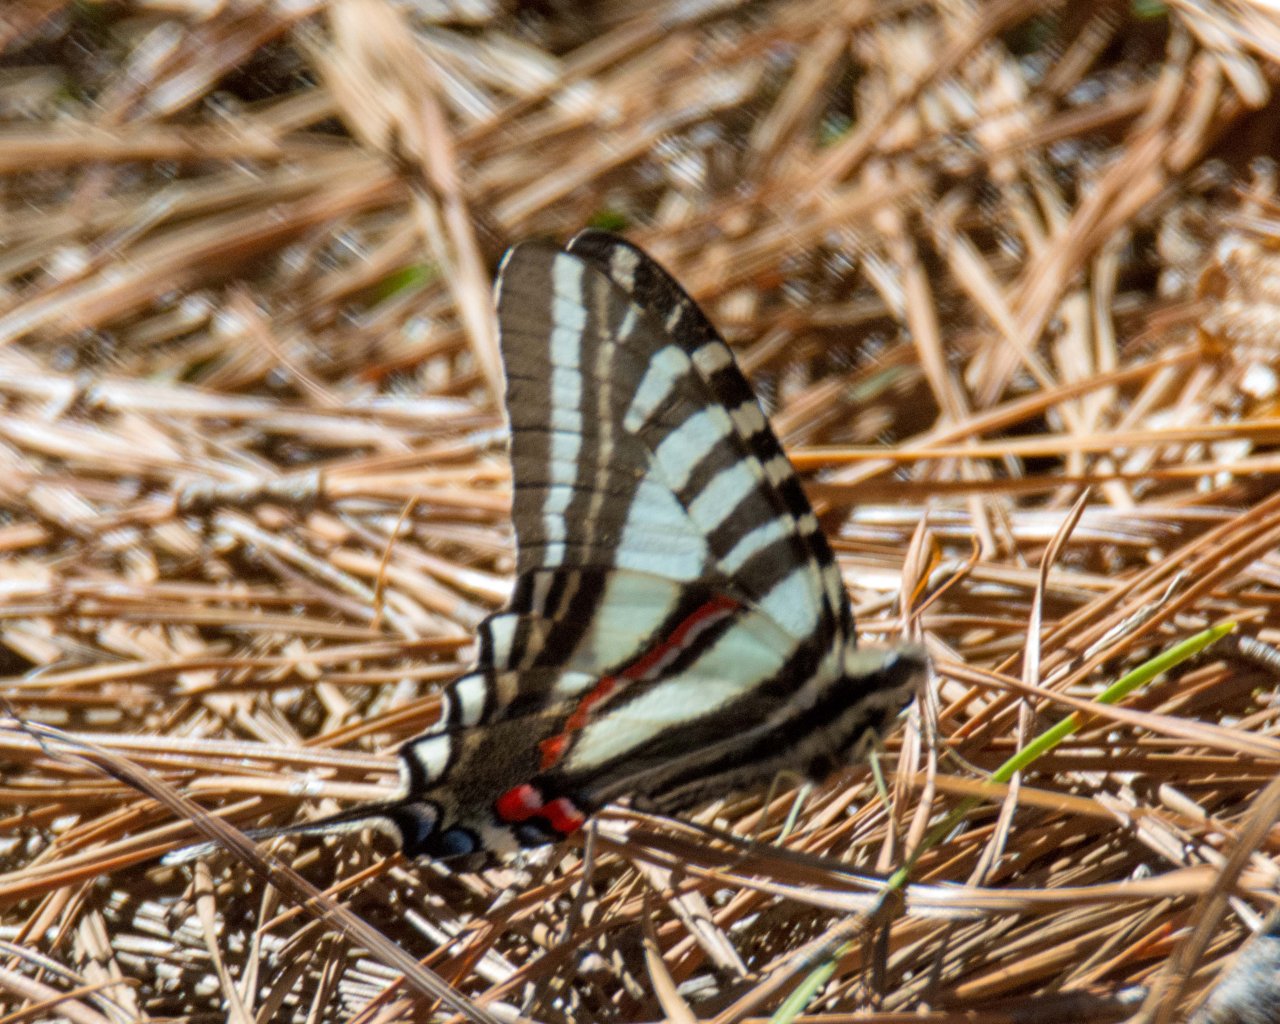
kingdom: Animalia
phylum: Arthropoda
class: Insecta
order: Lepidoptera
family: Papilionidae
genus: Protographium
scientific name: Protographium marcellus
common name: Zebra Swallowtail
